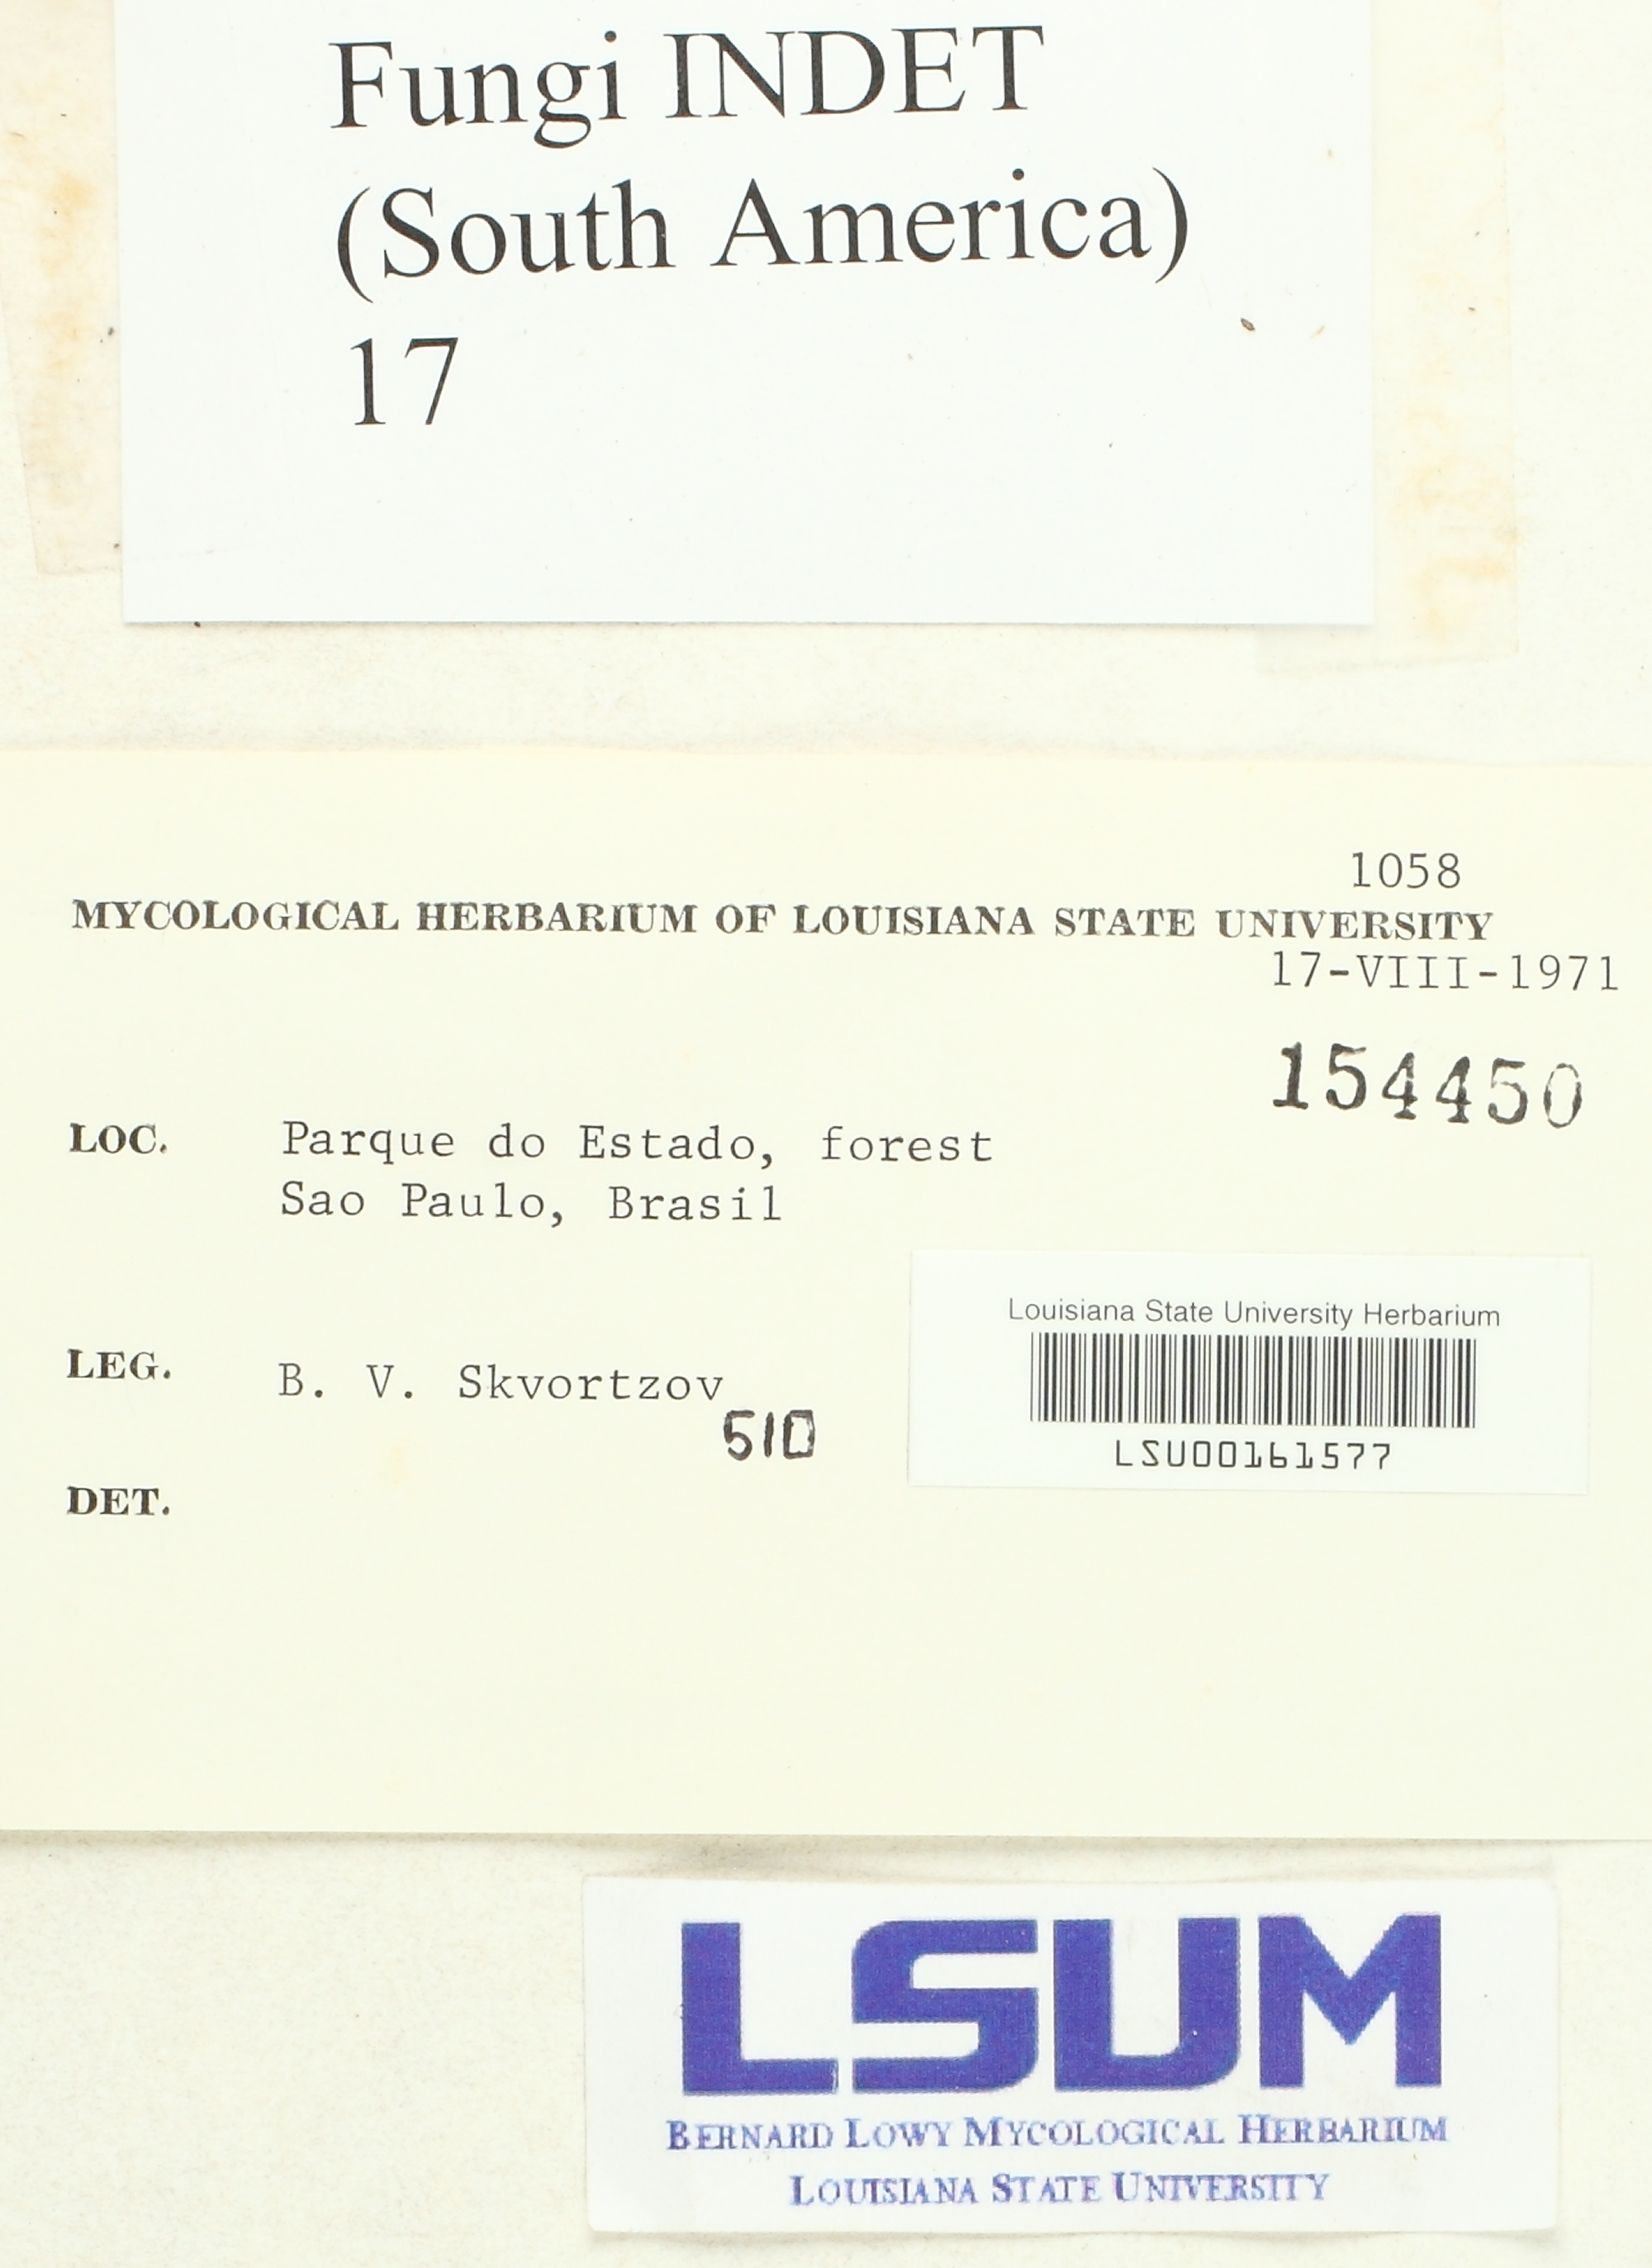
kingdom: Fungi
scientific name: Fungi
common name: Fungi
